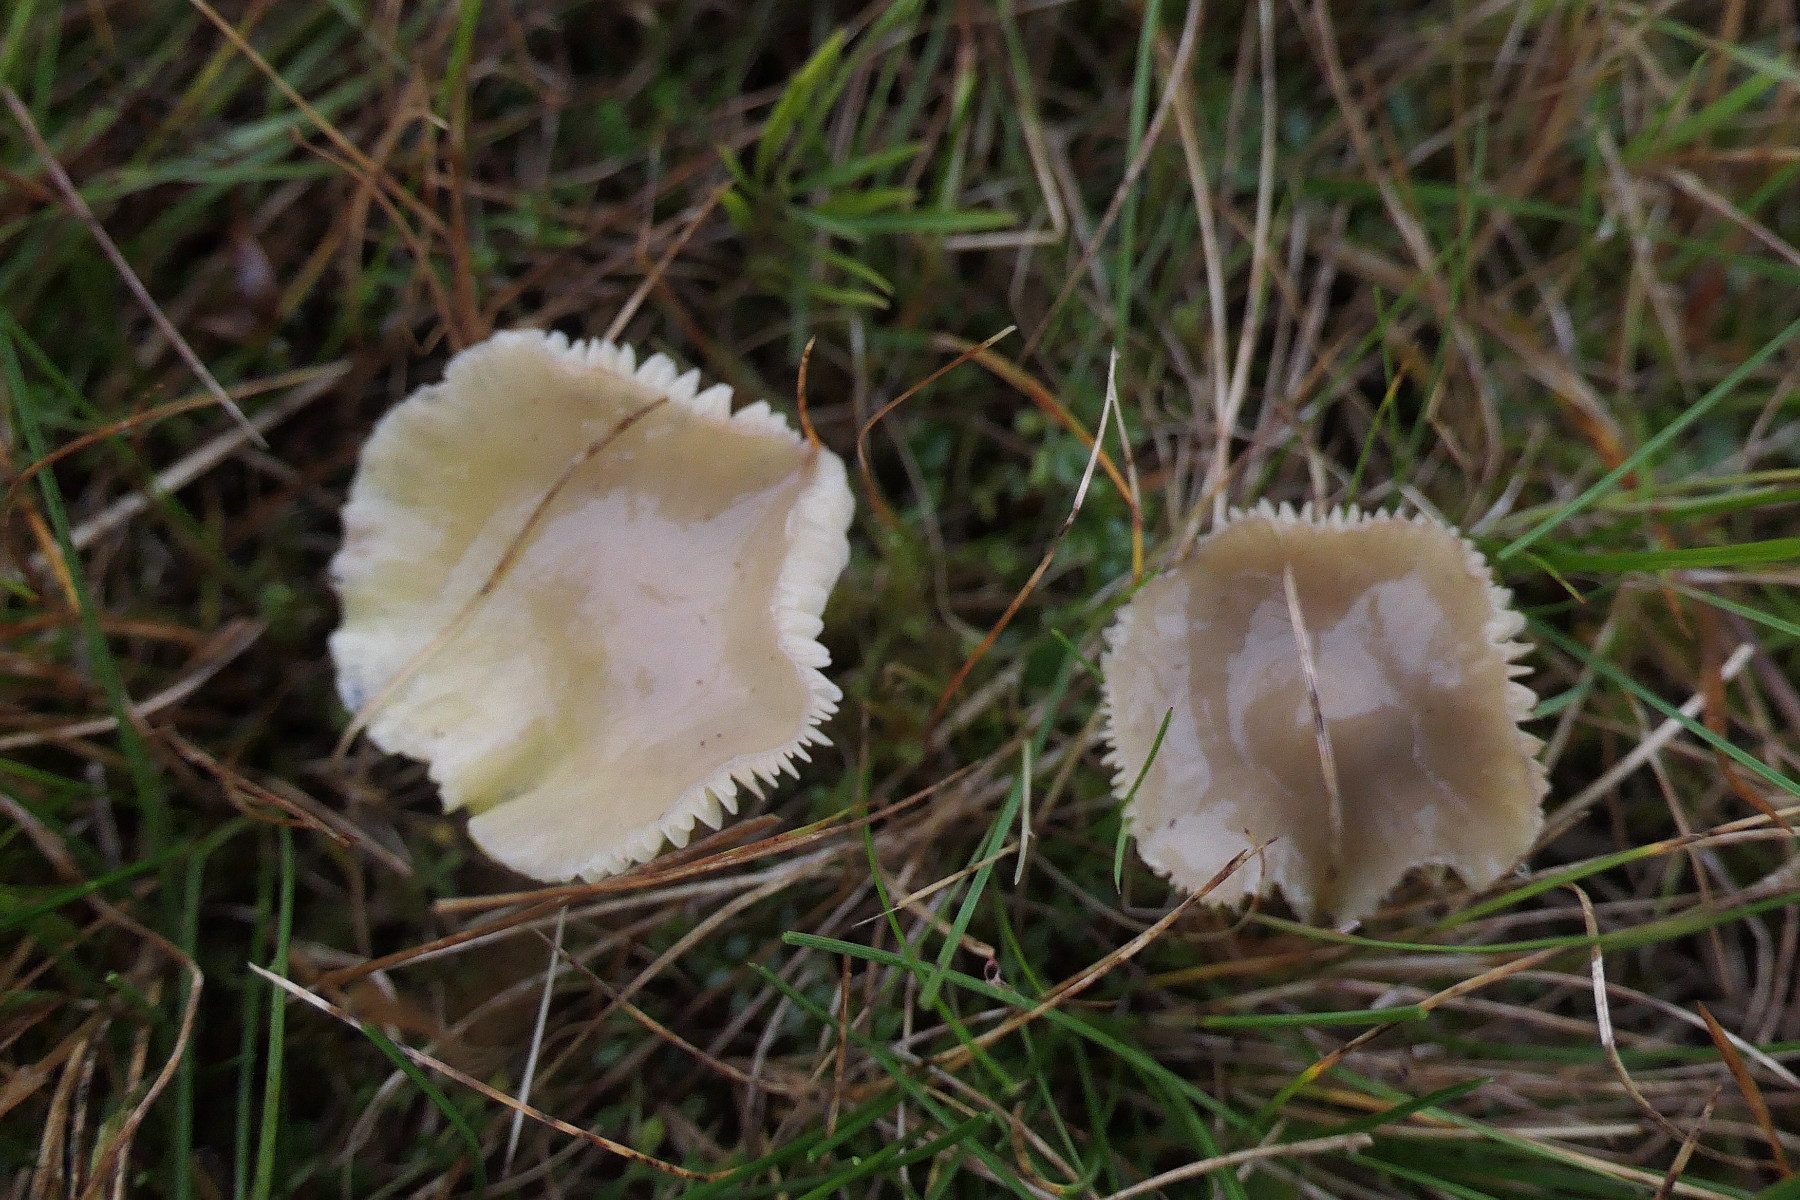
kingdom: Fungi
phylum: Basidiomycota
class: Agaricomycetes
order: Agaricales
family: Hygrophoraceae
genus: Gliophorus
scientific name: Gliophorus psittacinus
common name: papegøje-vokshat
